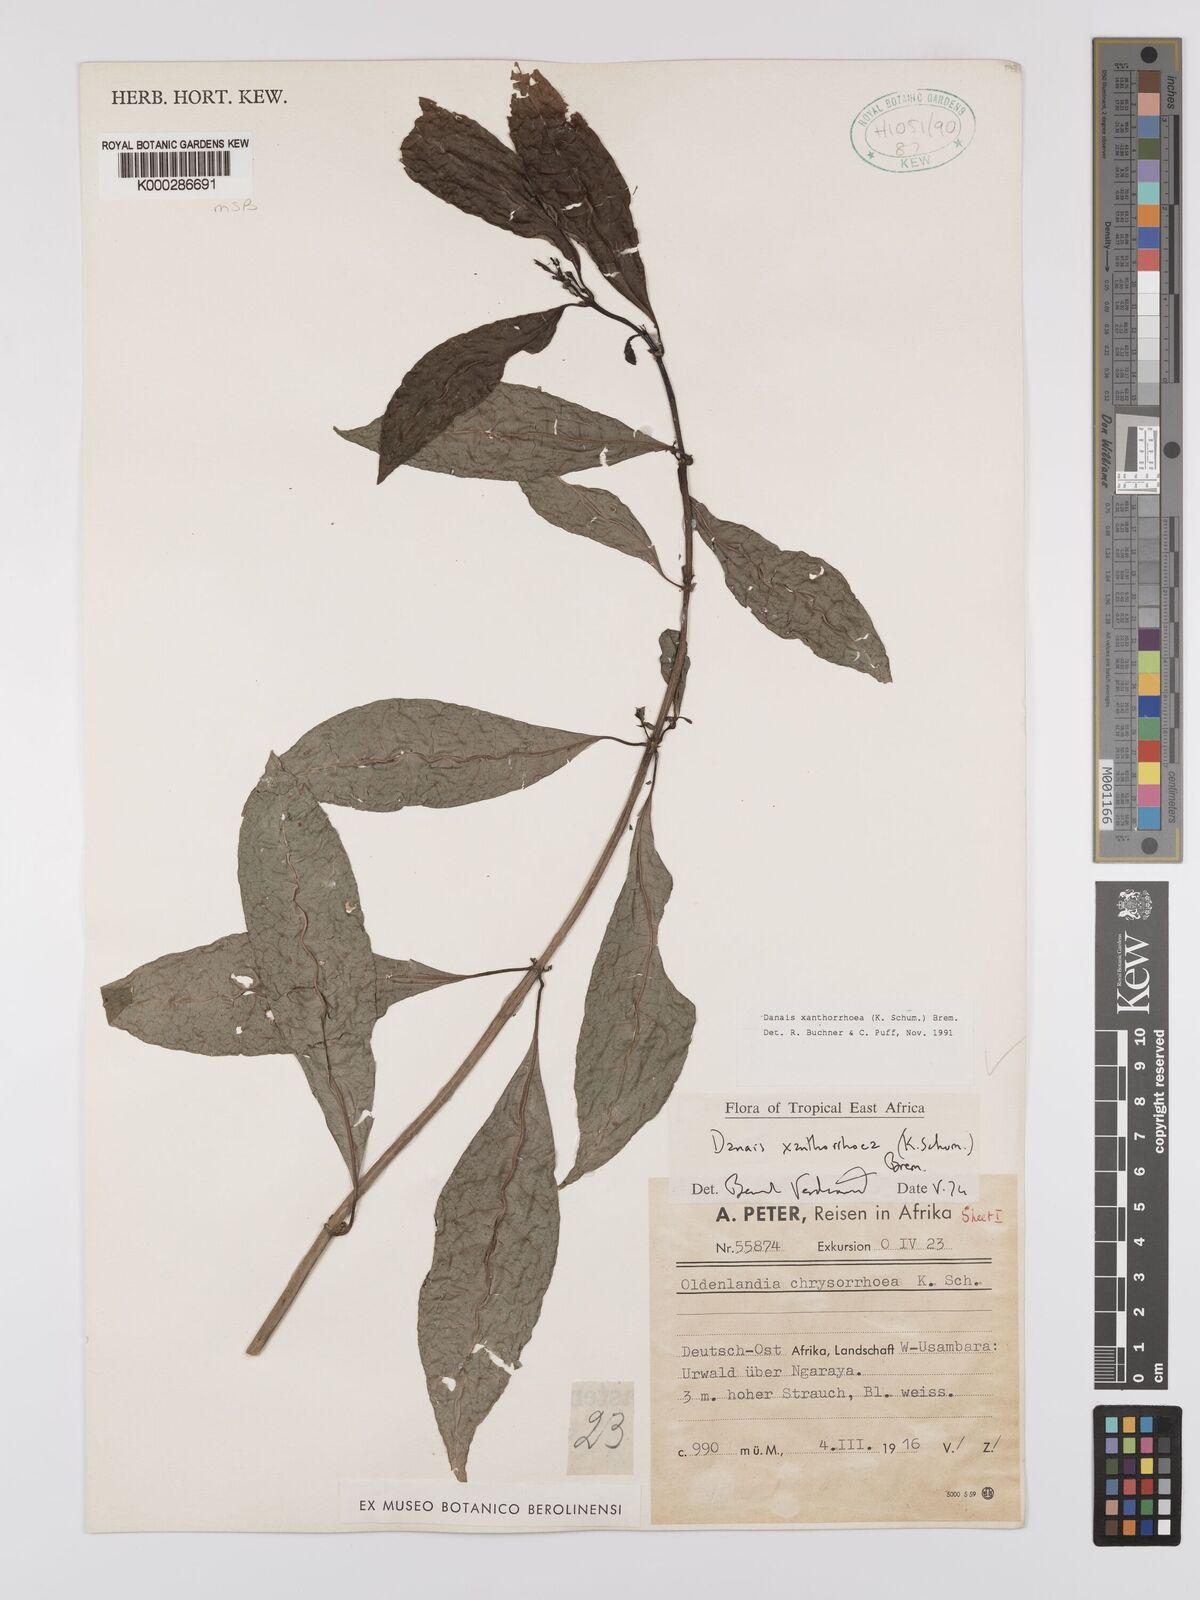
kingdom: Plantae
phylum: Tracheophyta
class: Magnoliopsida
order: Gentianales
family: Rubiaceae
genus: Danais
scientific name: Danais xanthorrhoea
